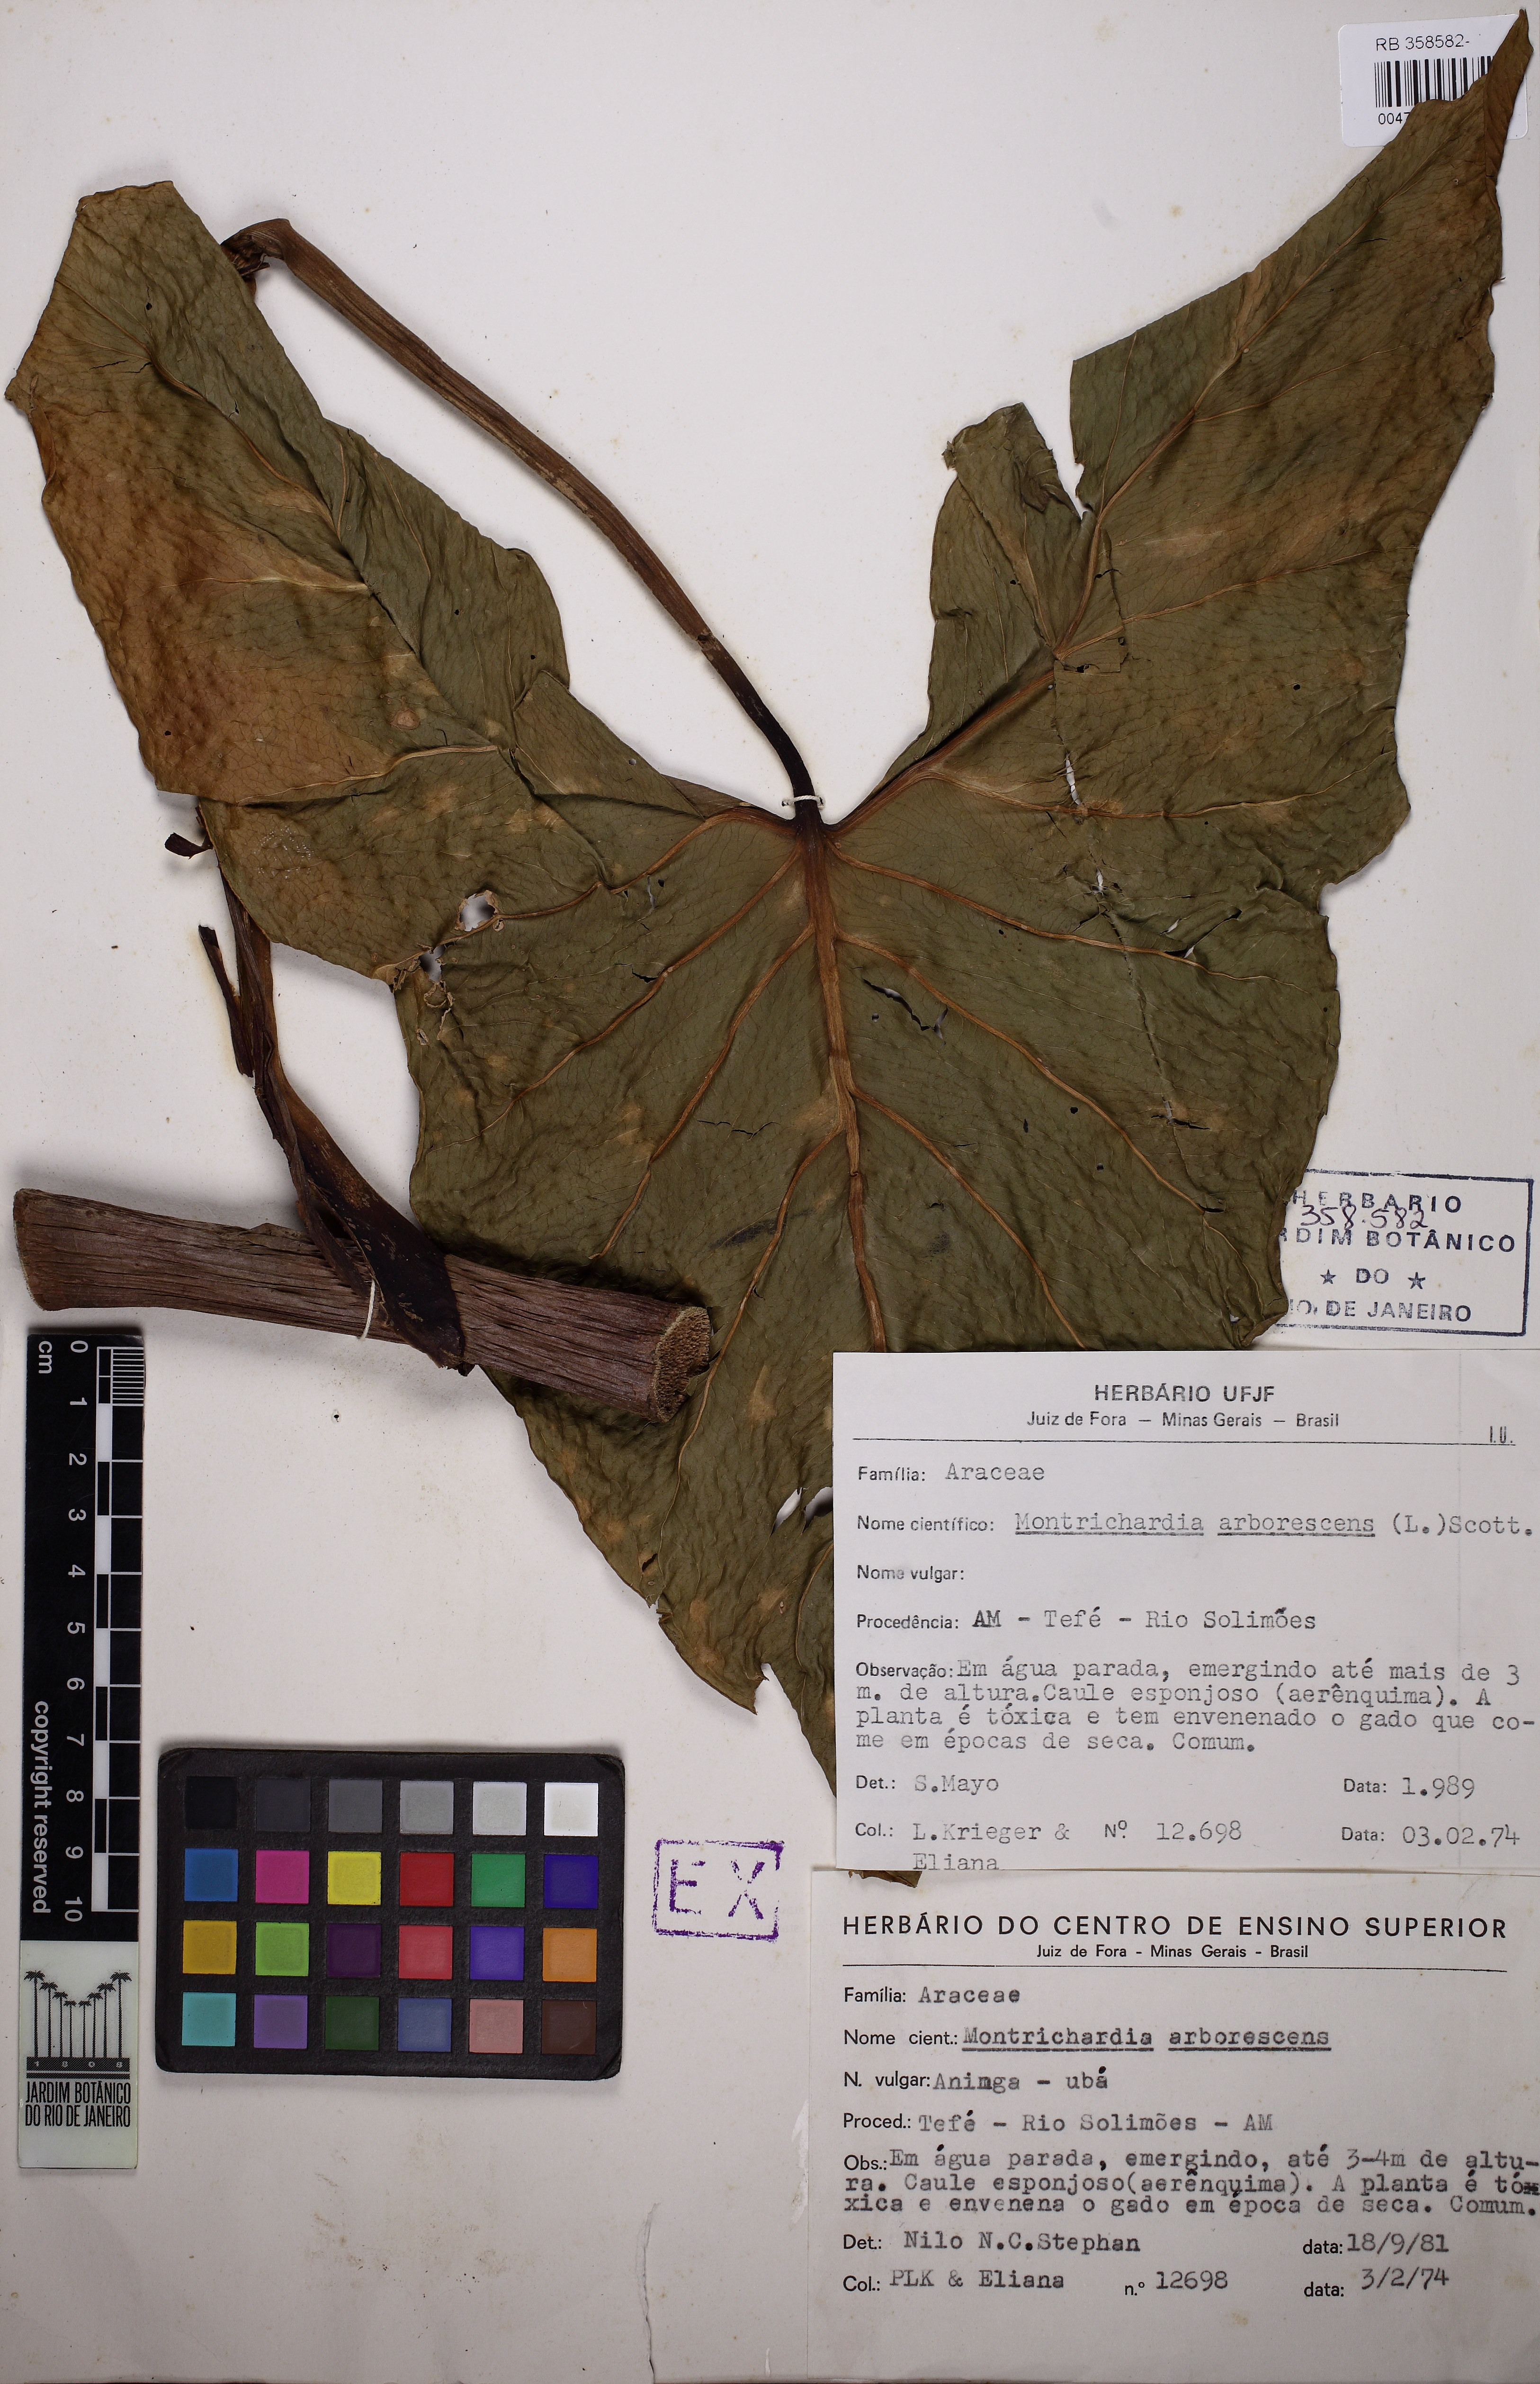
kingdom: Plantae
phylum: Tracheophyta
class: Liliopsida
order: Alismatales
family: Araceae
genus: Montrichardia
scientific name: Montrichardia arborescens
